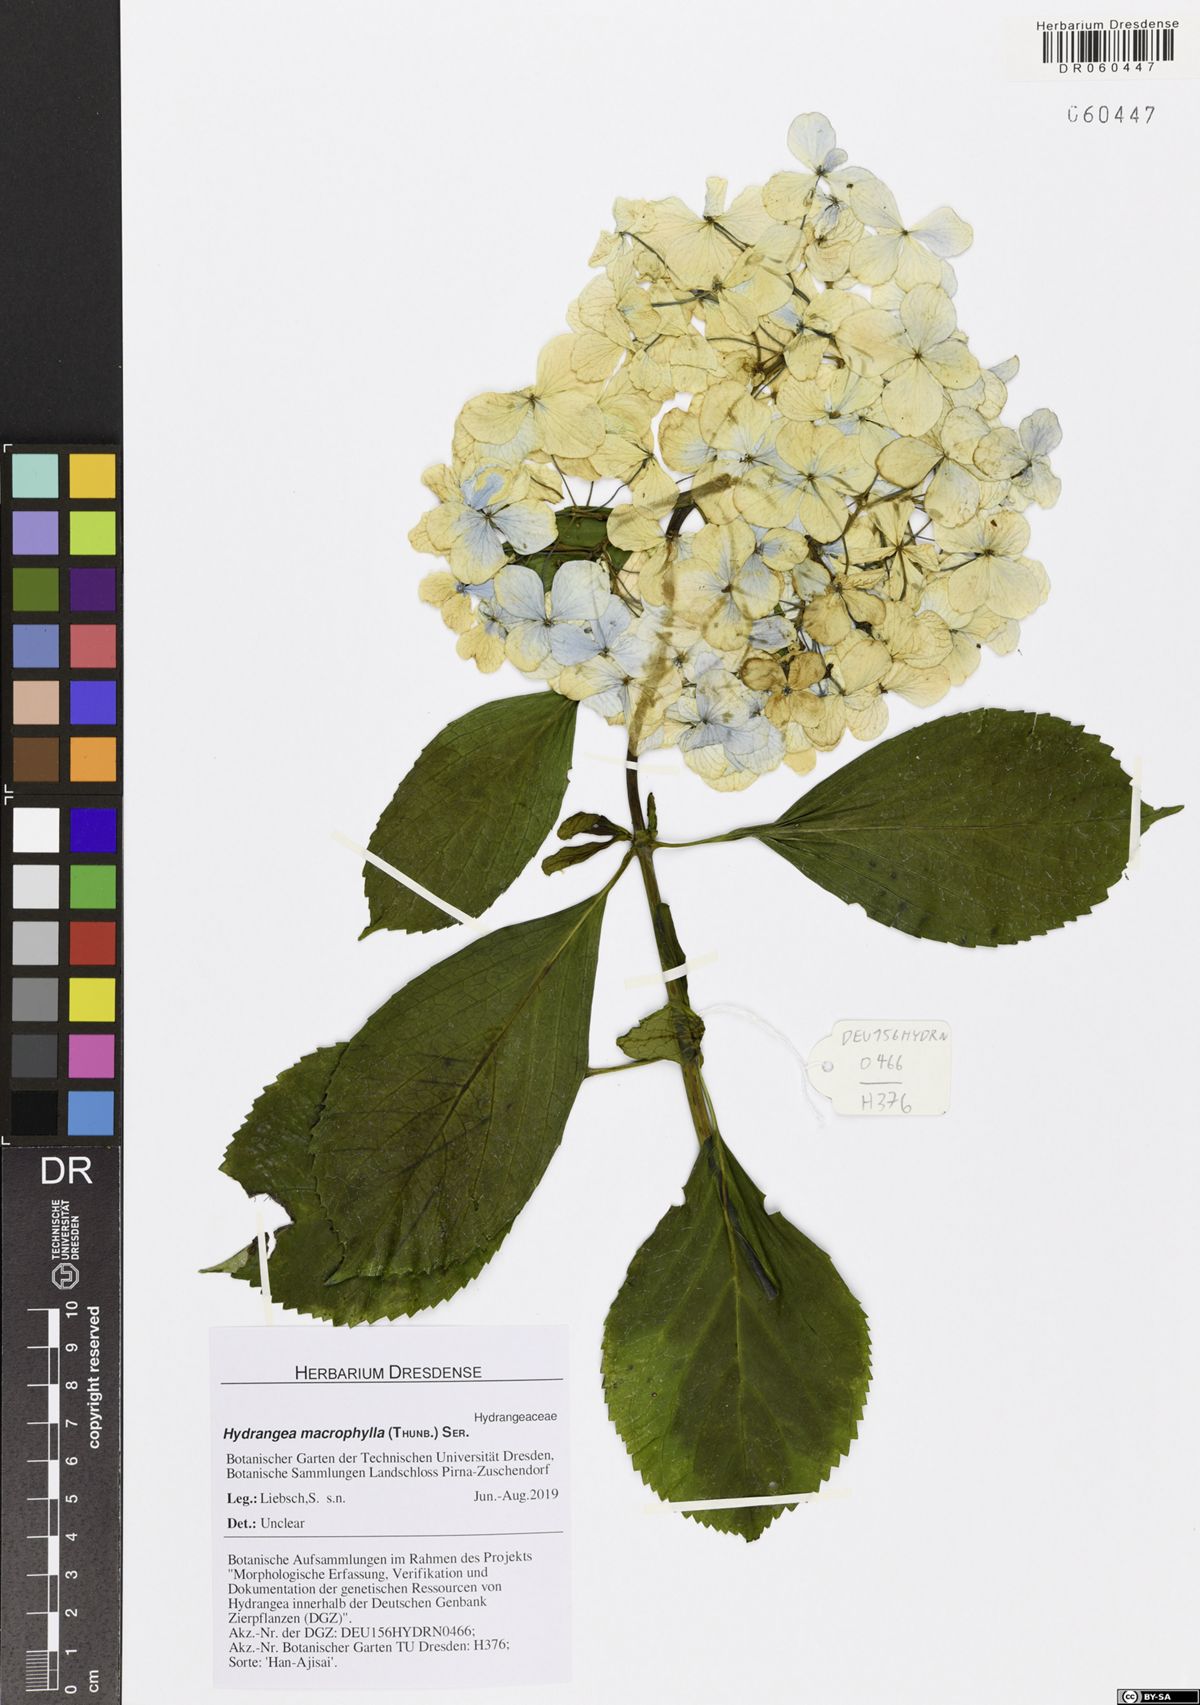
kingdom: Plantae
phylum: Tracheophyta
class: Magnoliopsida
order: Cornales
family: Hydrangeaceae
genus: Hydrangea
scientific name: Hydrangea macrophylla
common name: Hydrangea
